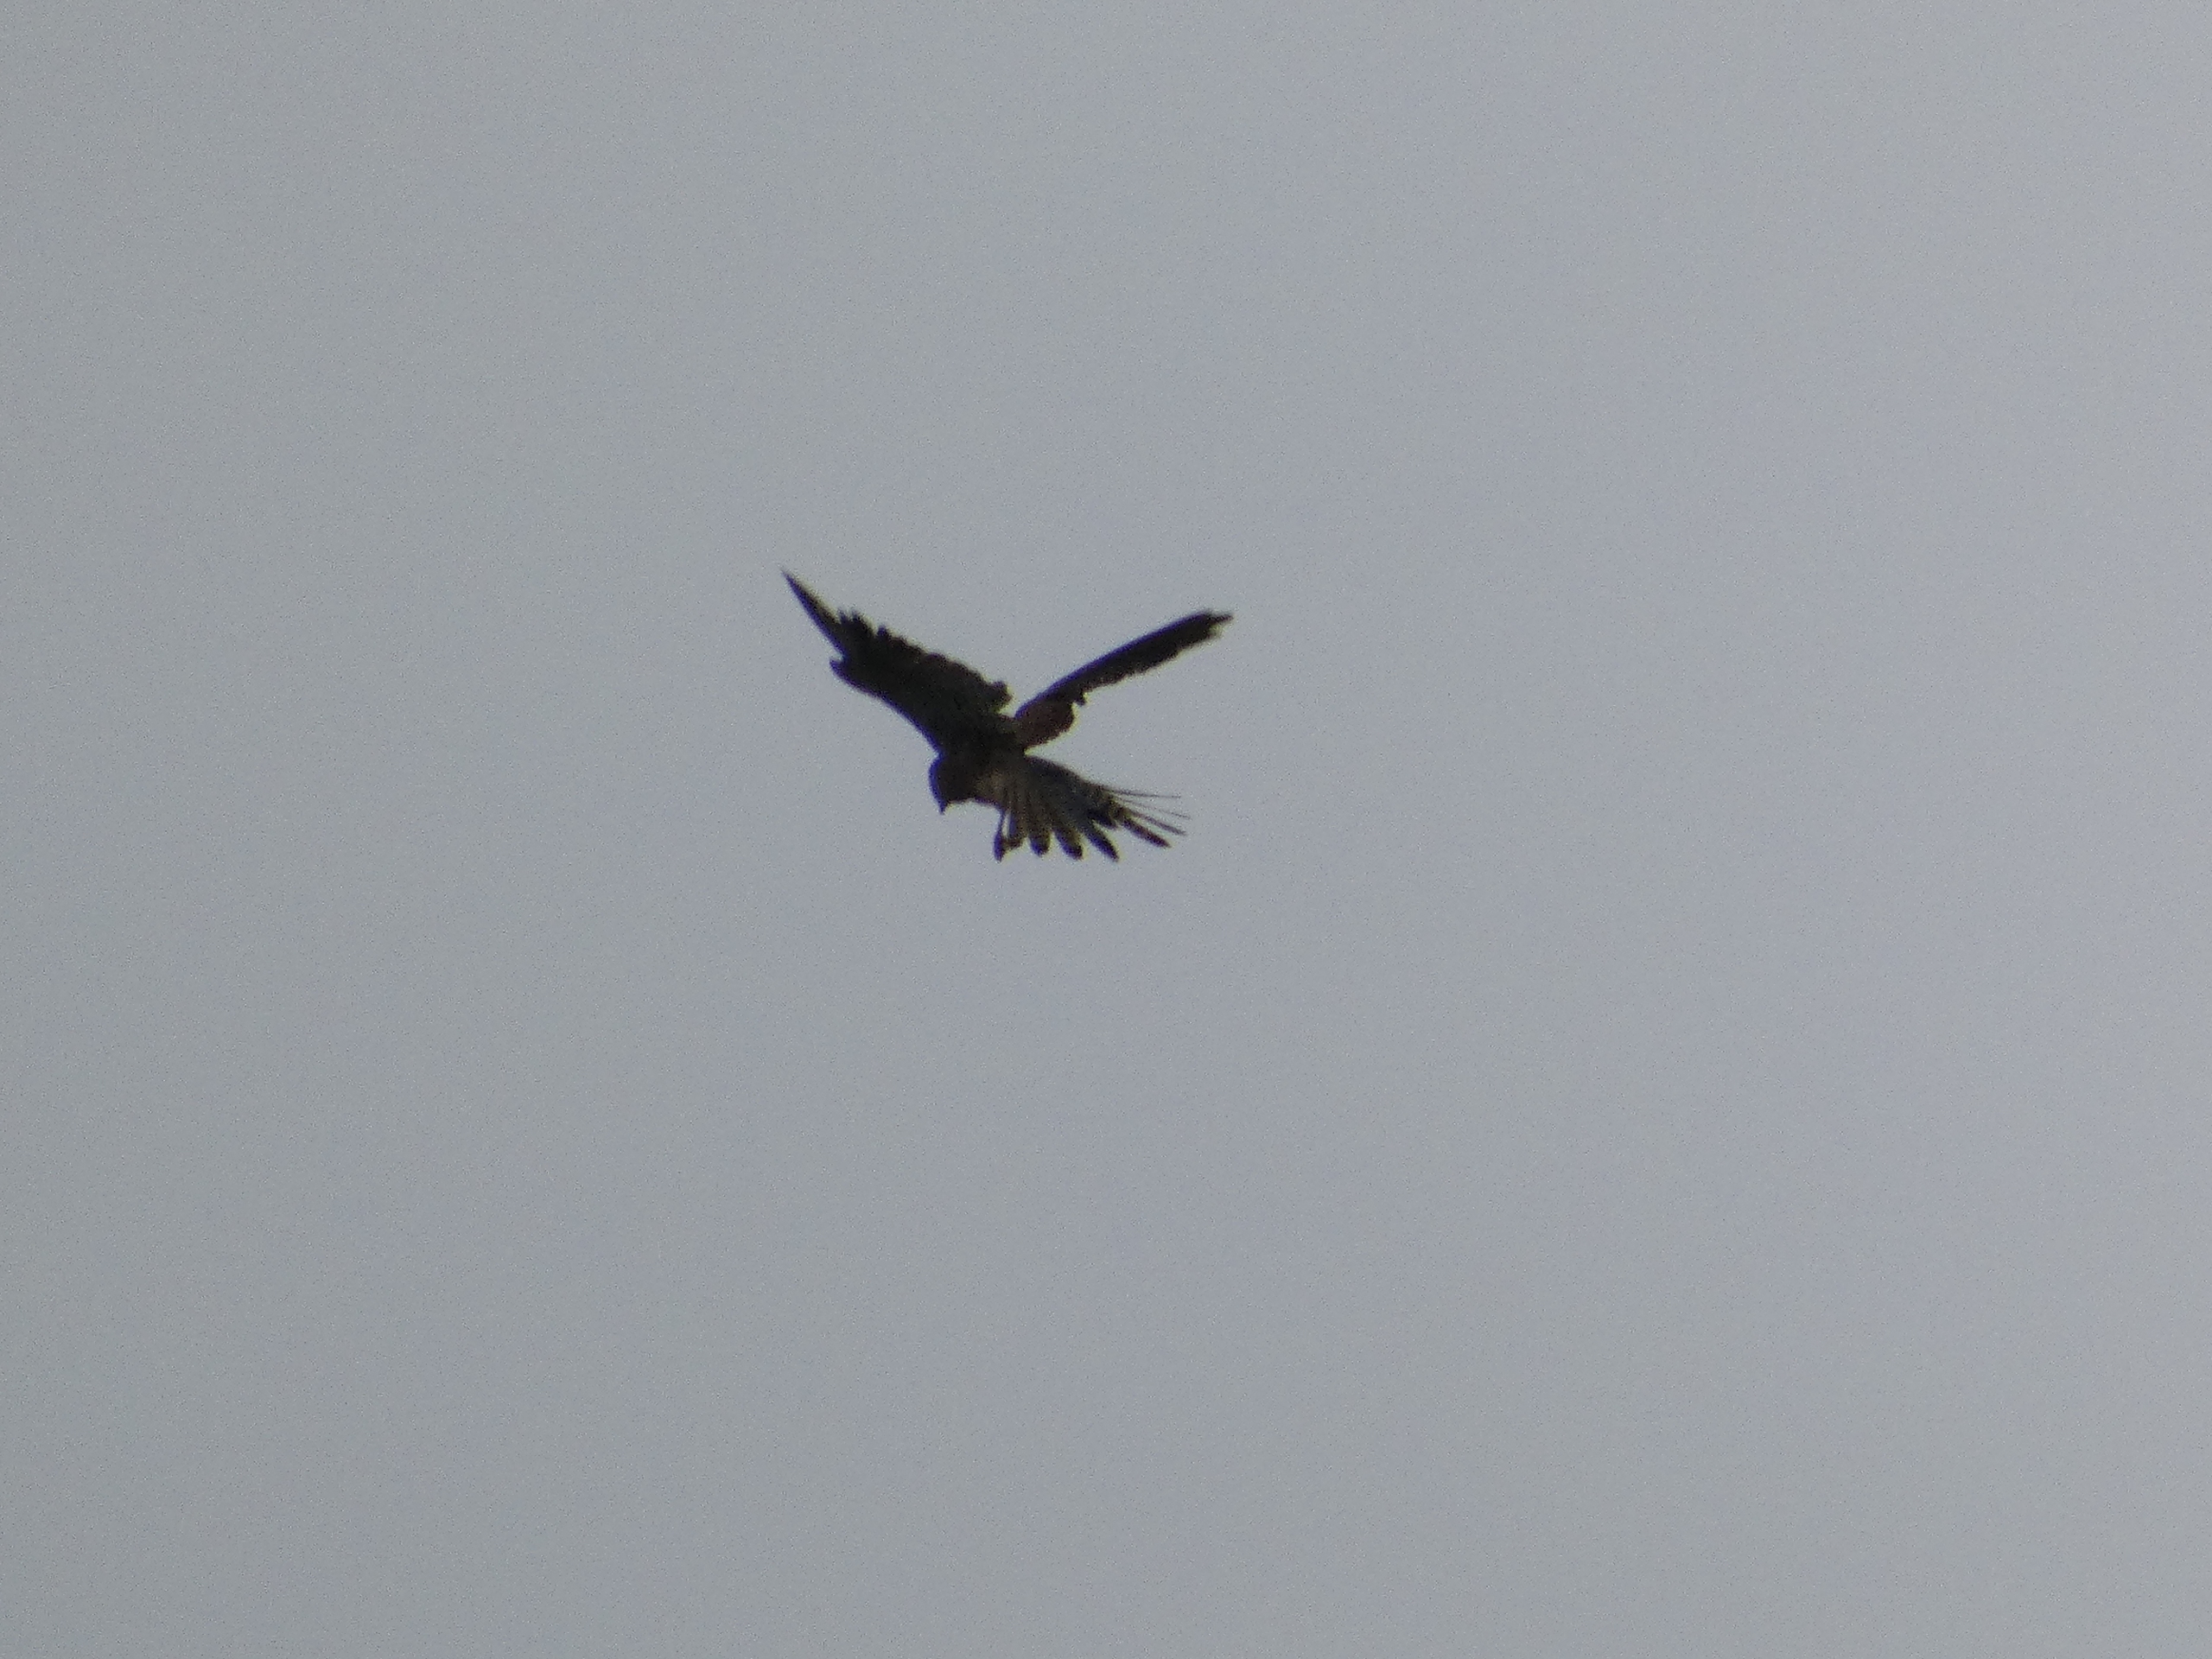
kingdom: Animalia
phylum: Chordata
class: Aves
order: Falconiformes
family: Falconidae
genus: Falco
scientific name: Falco tinnunculus
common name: Tårnfalk
